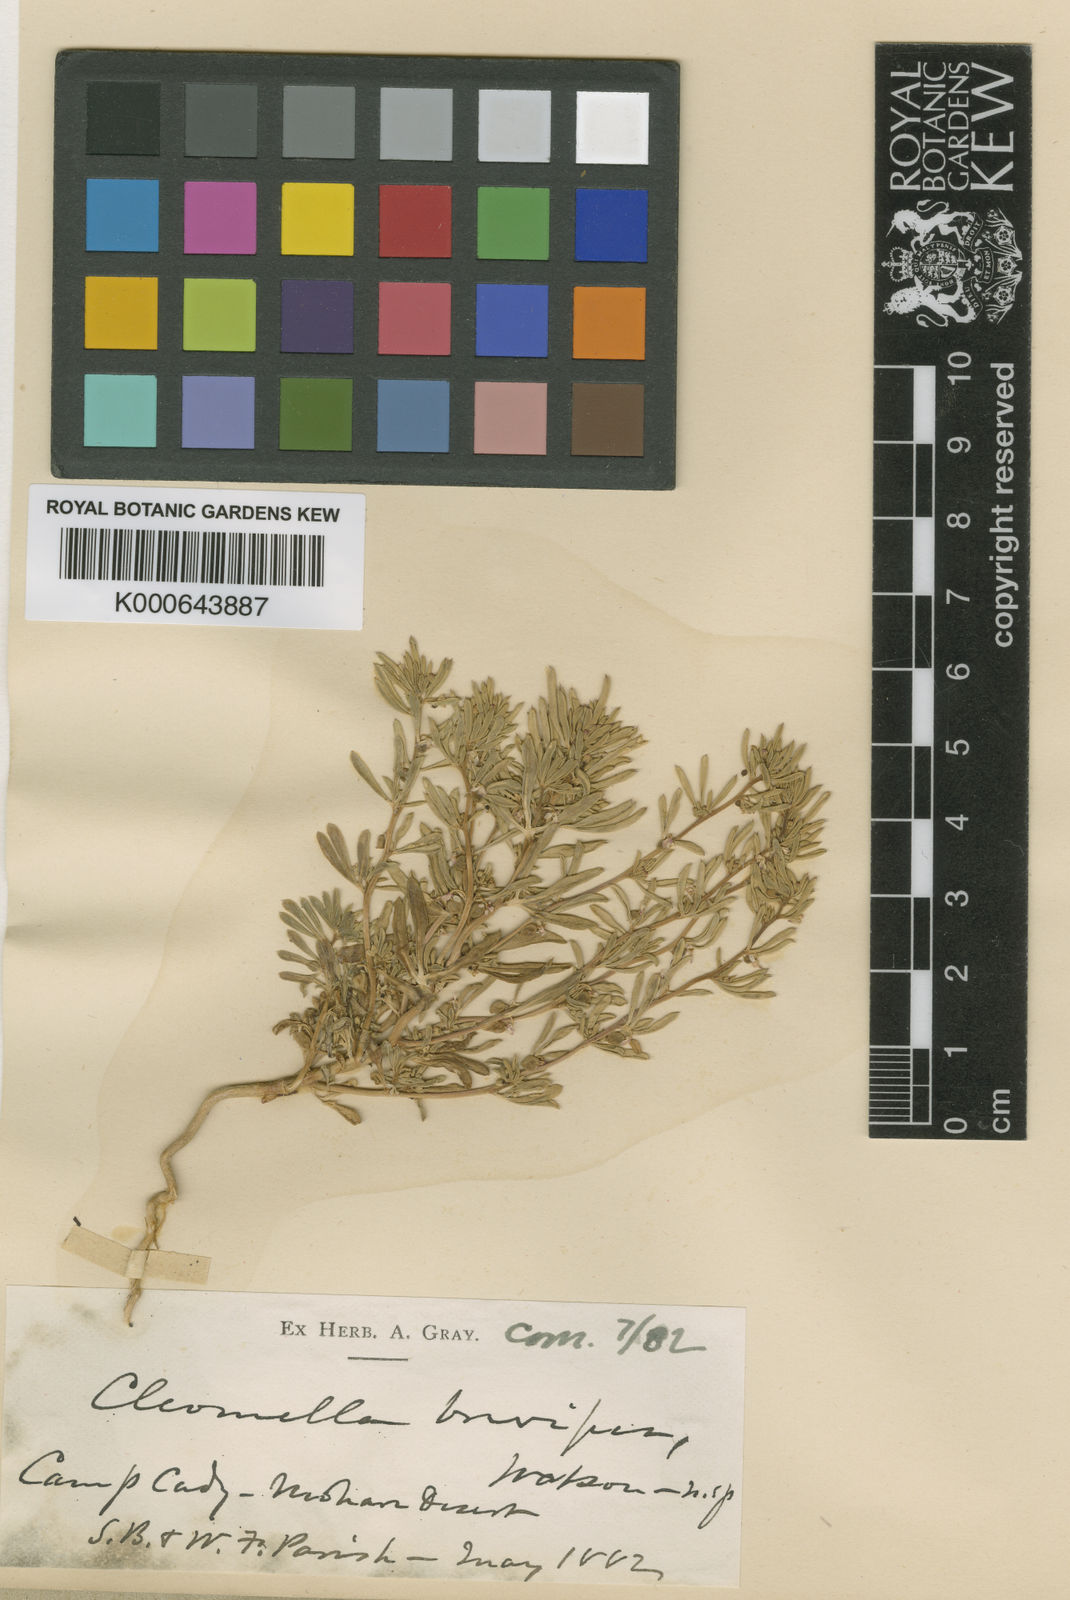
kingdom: Plantae
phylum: Tracheophyta
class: Magnoliopsida
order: Brassicales
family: Cleomaceae
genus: Cleomella
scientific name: Cleomella brevipes
